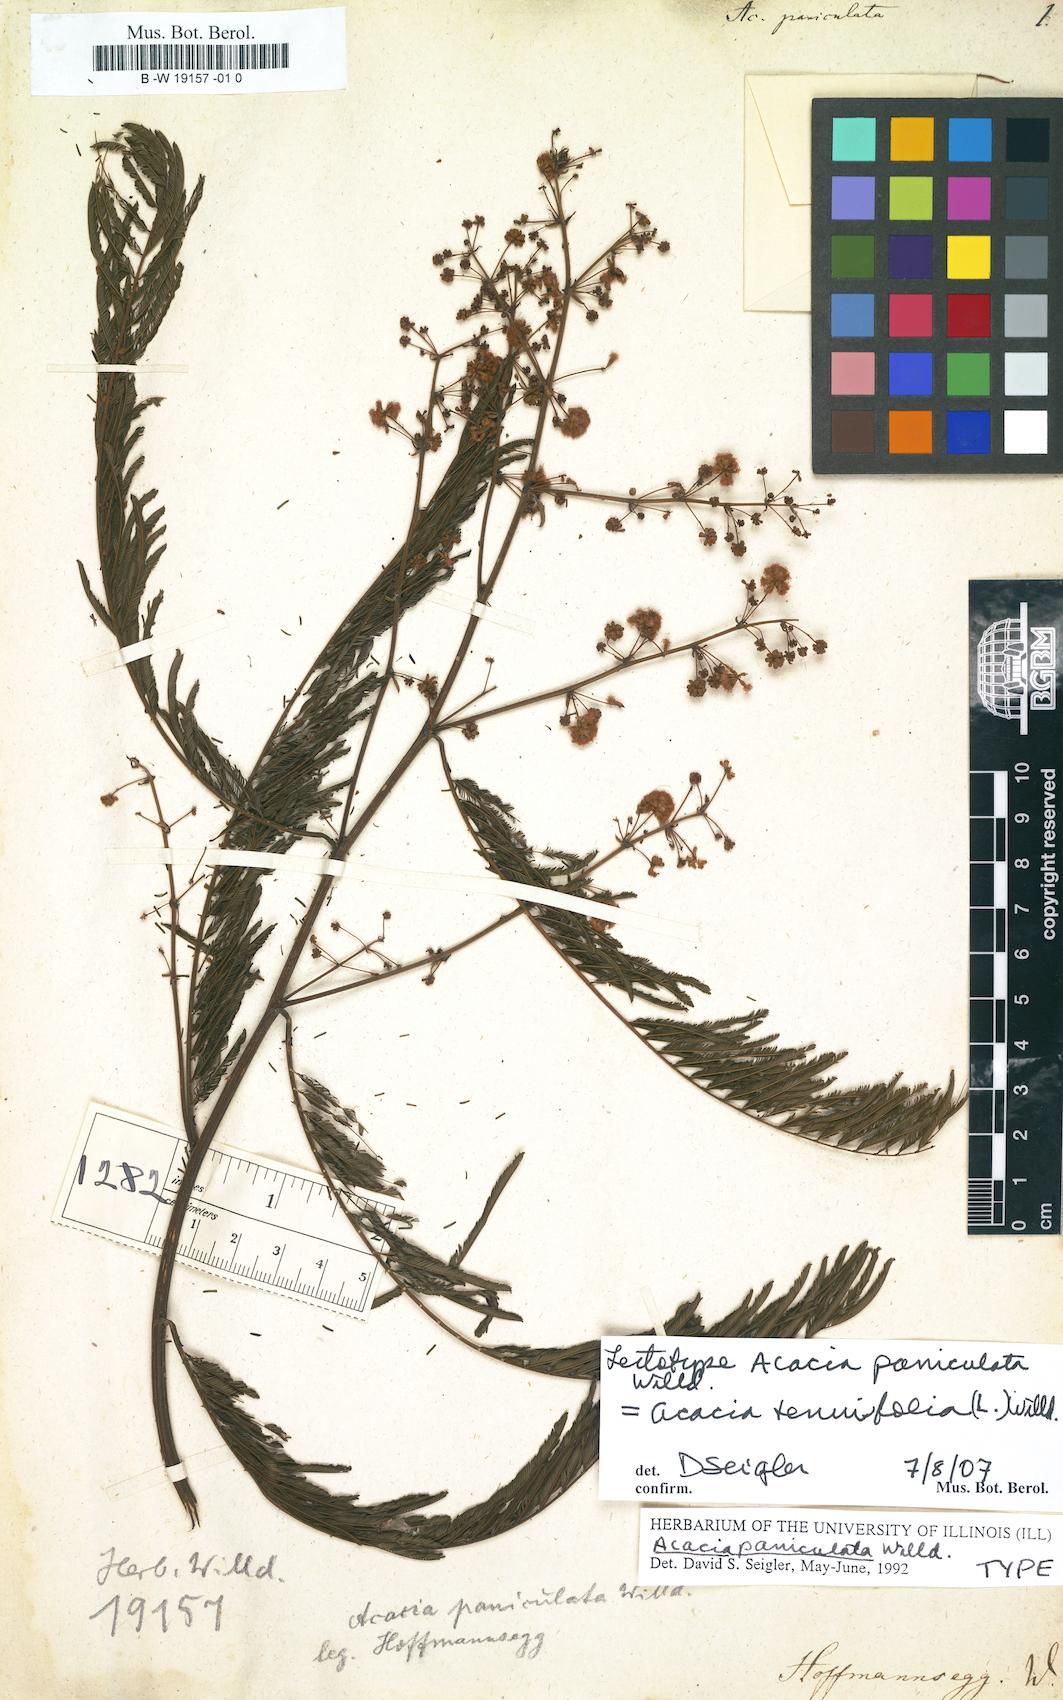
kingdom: Plantae
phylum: Tracheophyta
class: Magnoliopsida
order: Fabales
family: Fabaceae
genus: Senegalia
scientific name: Senegalia paniculata
